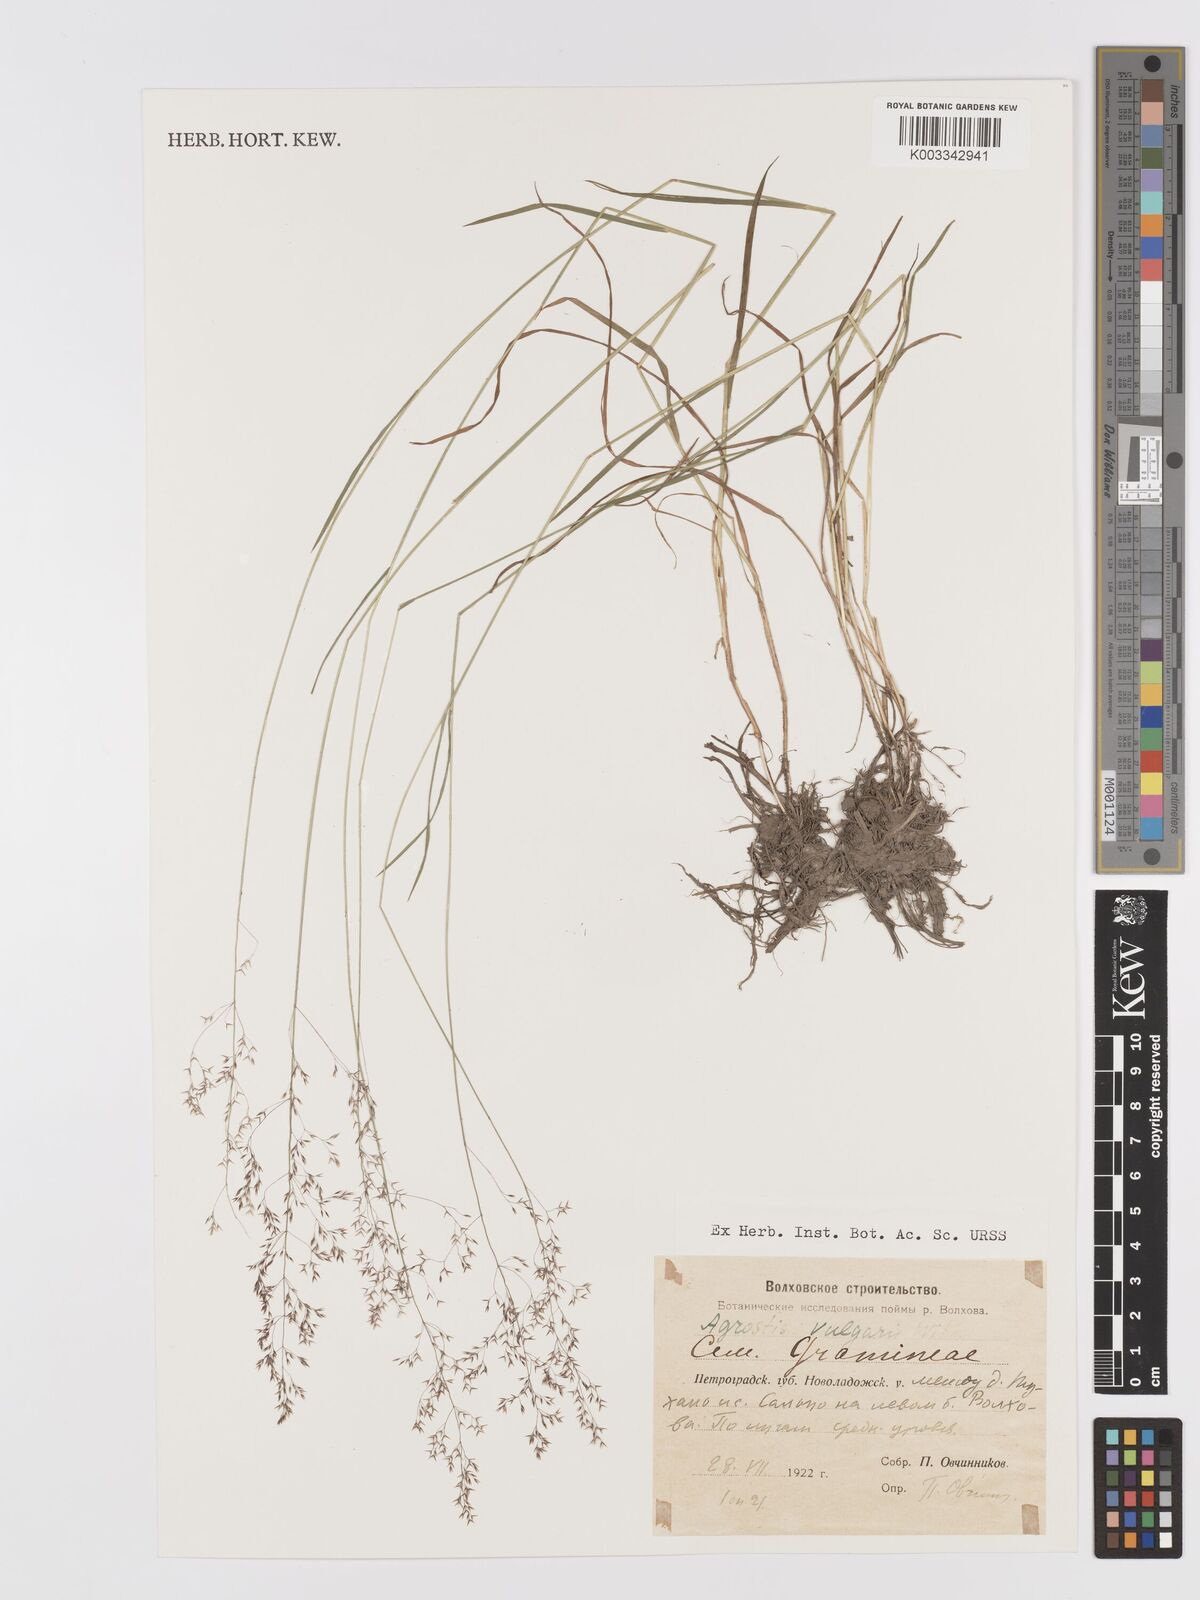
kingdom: Plantae
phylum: Tracheophyta
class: Liliopsida
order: Poales
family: Poaceae
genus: Agrostis
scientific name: Agrostis capillaris
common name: Colonial bentgrass
